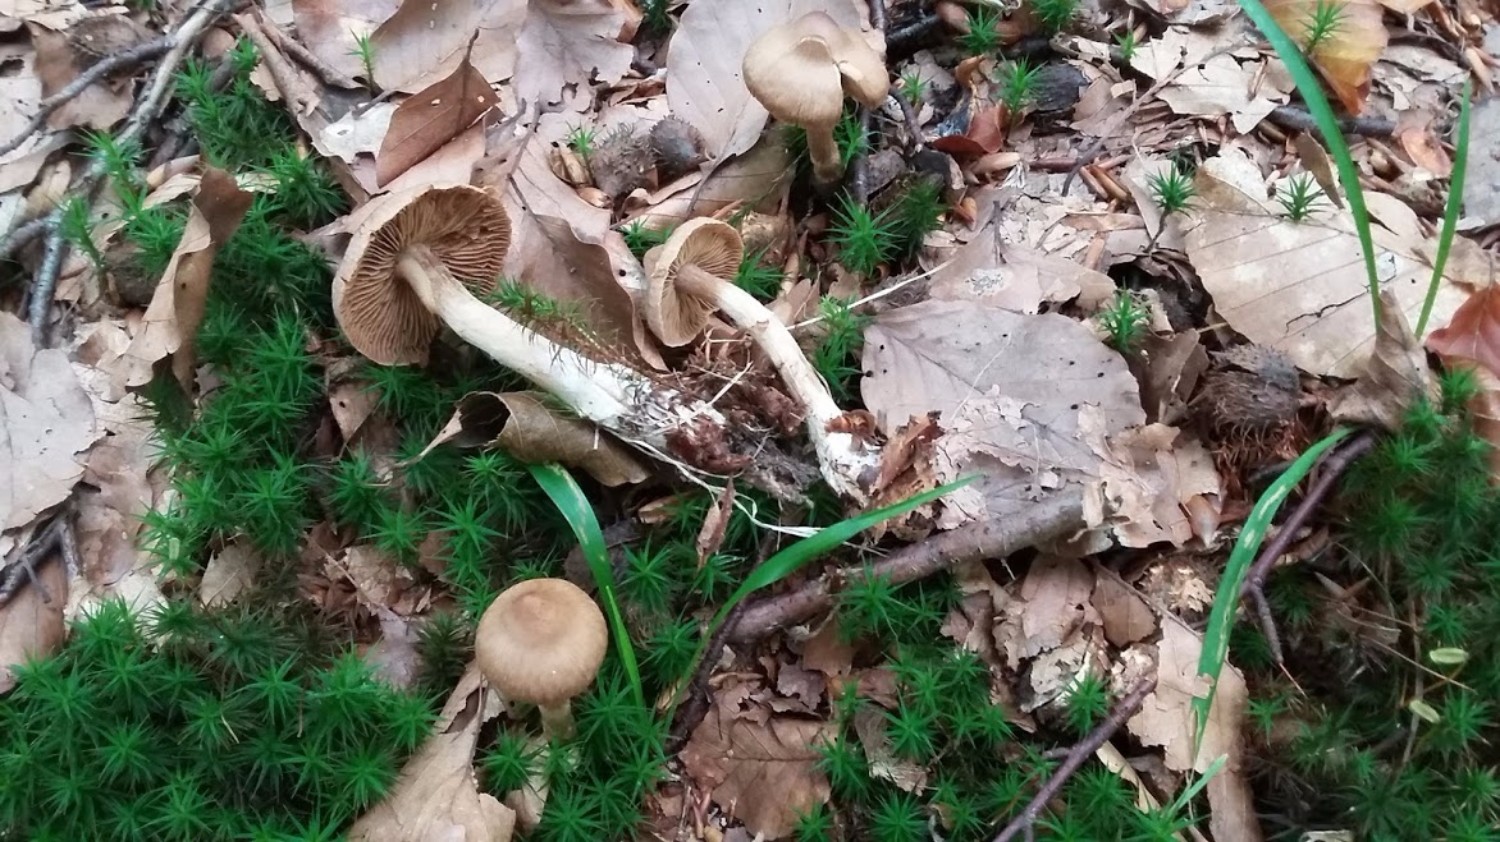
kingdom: Fungi
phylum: Basidiomycota
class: Agaricomycetes
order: Agaricales
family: Cortinariaceae
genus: Cortinarius
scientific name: Cortinarius
